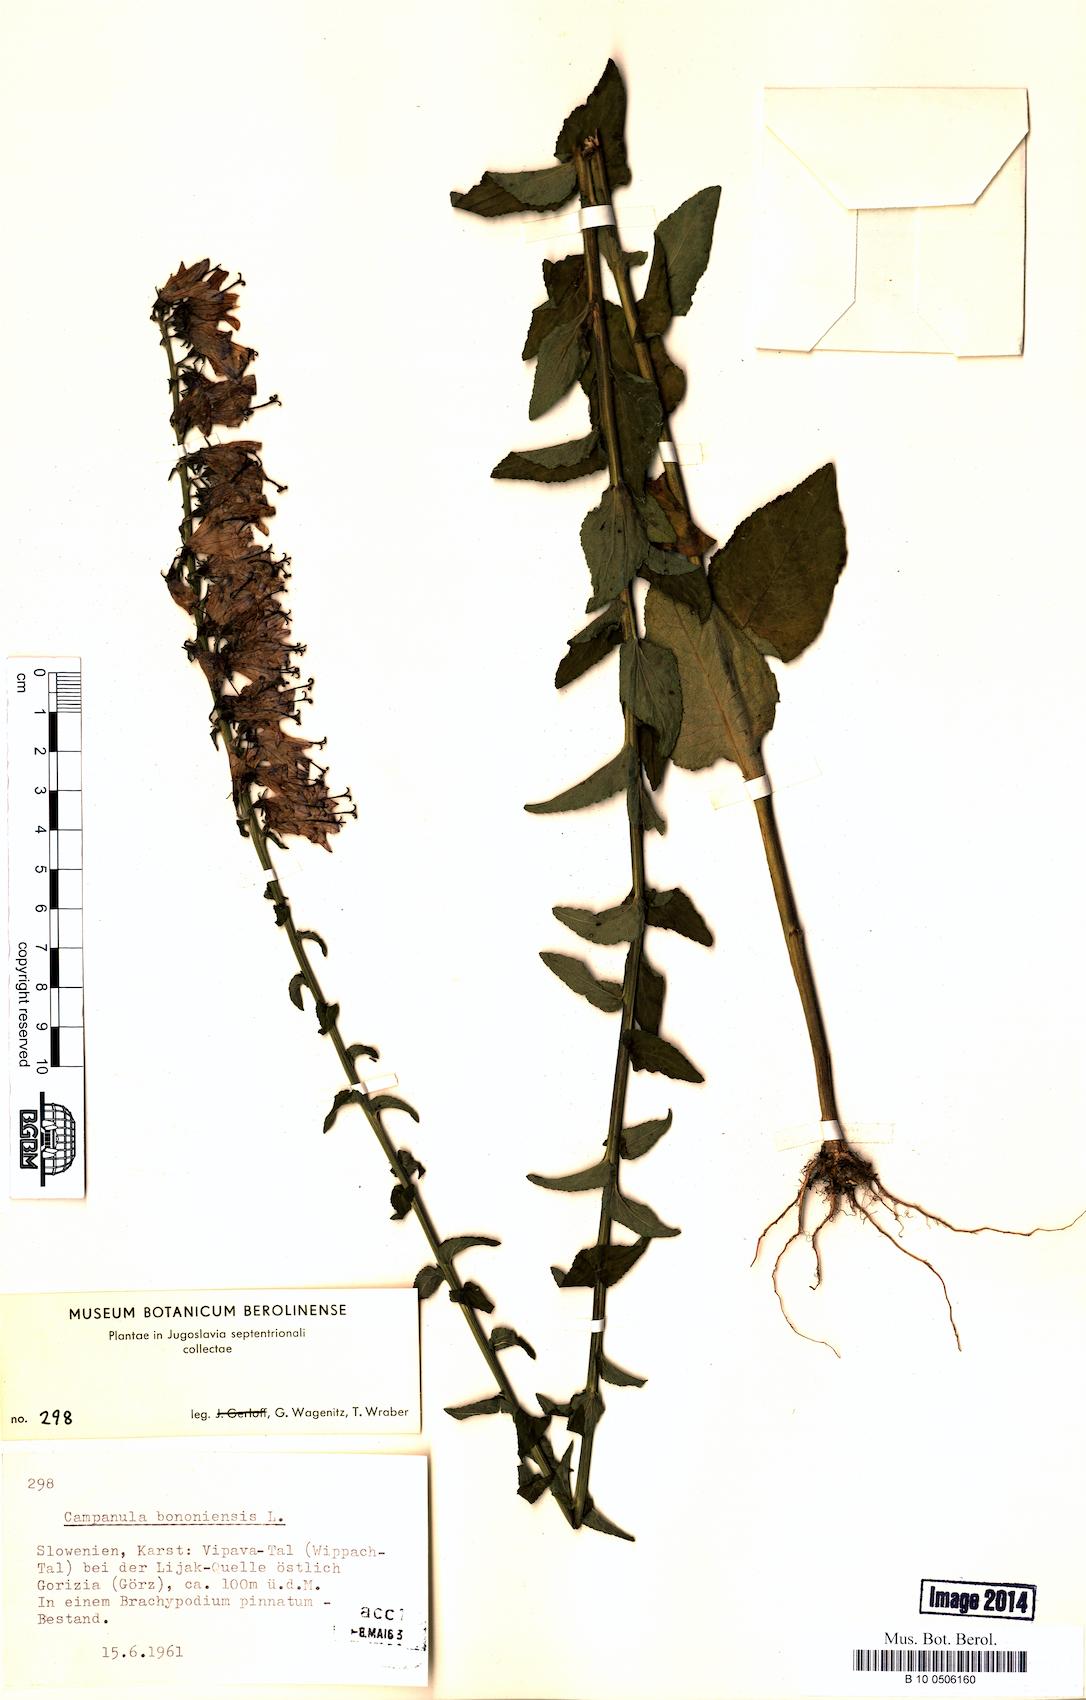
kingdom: Plantae
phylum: Tracheophyta
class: Magnoliopsida
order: Asterales
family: Campanulaceae
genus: Campanula
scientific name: Campanula bononiensis
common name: Pale bellflower
